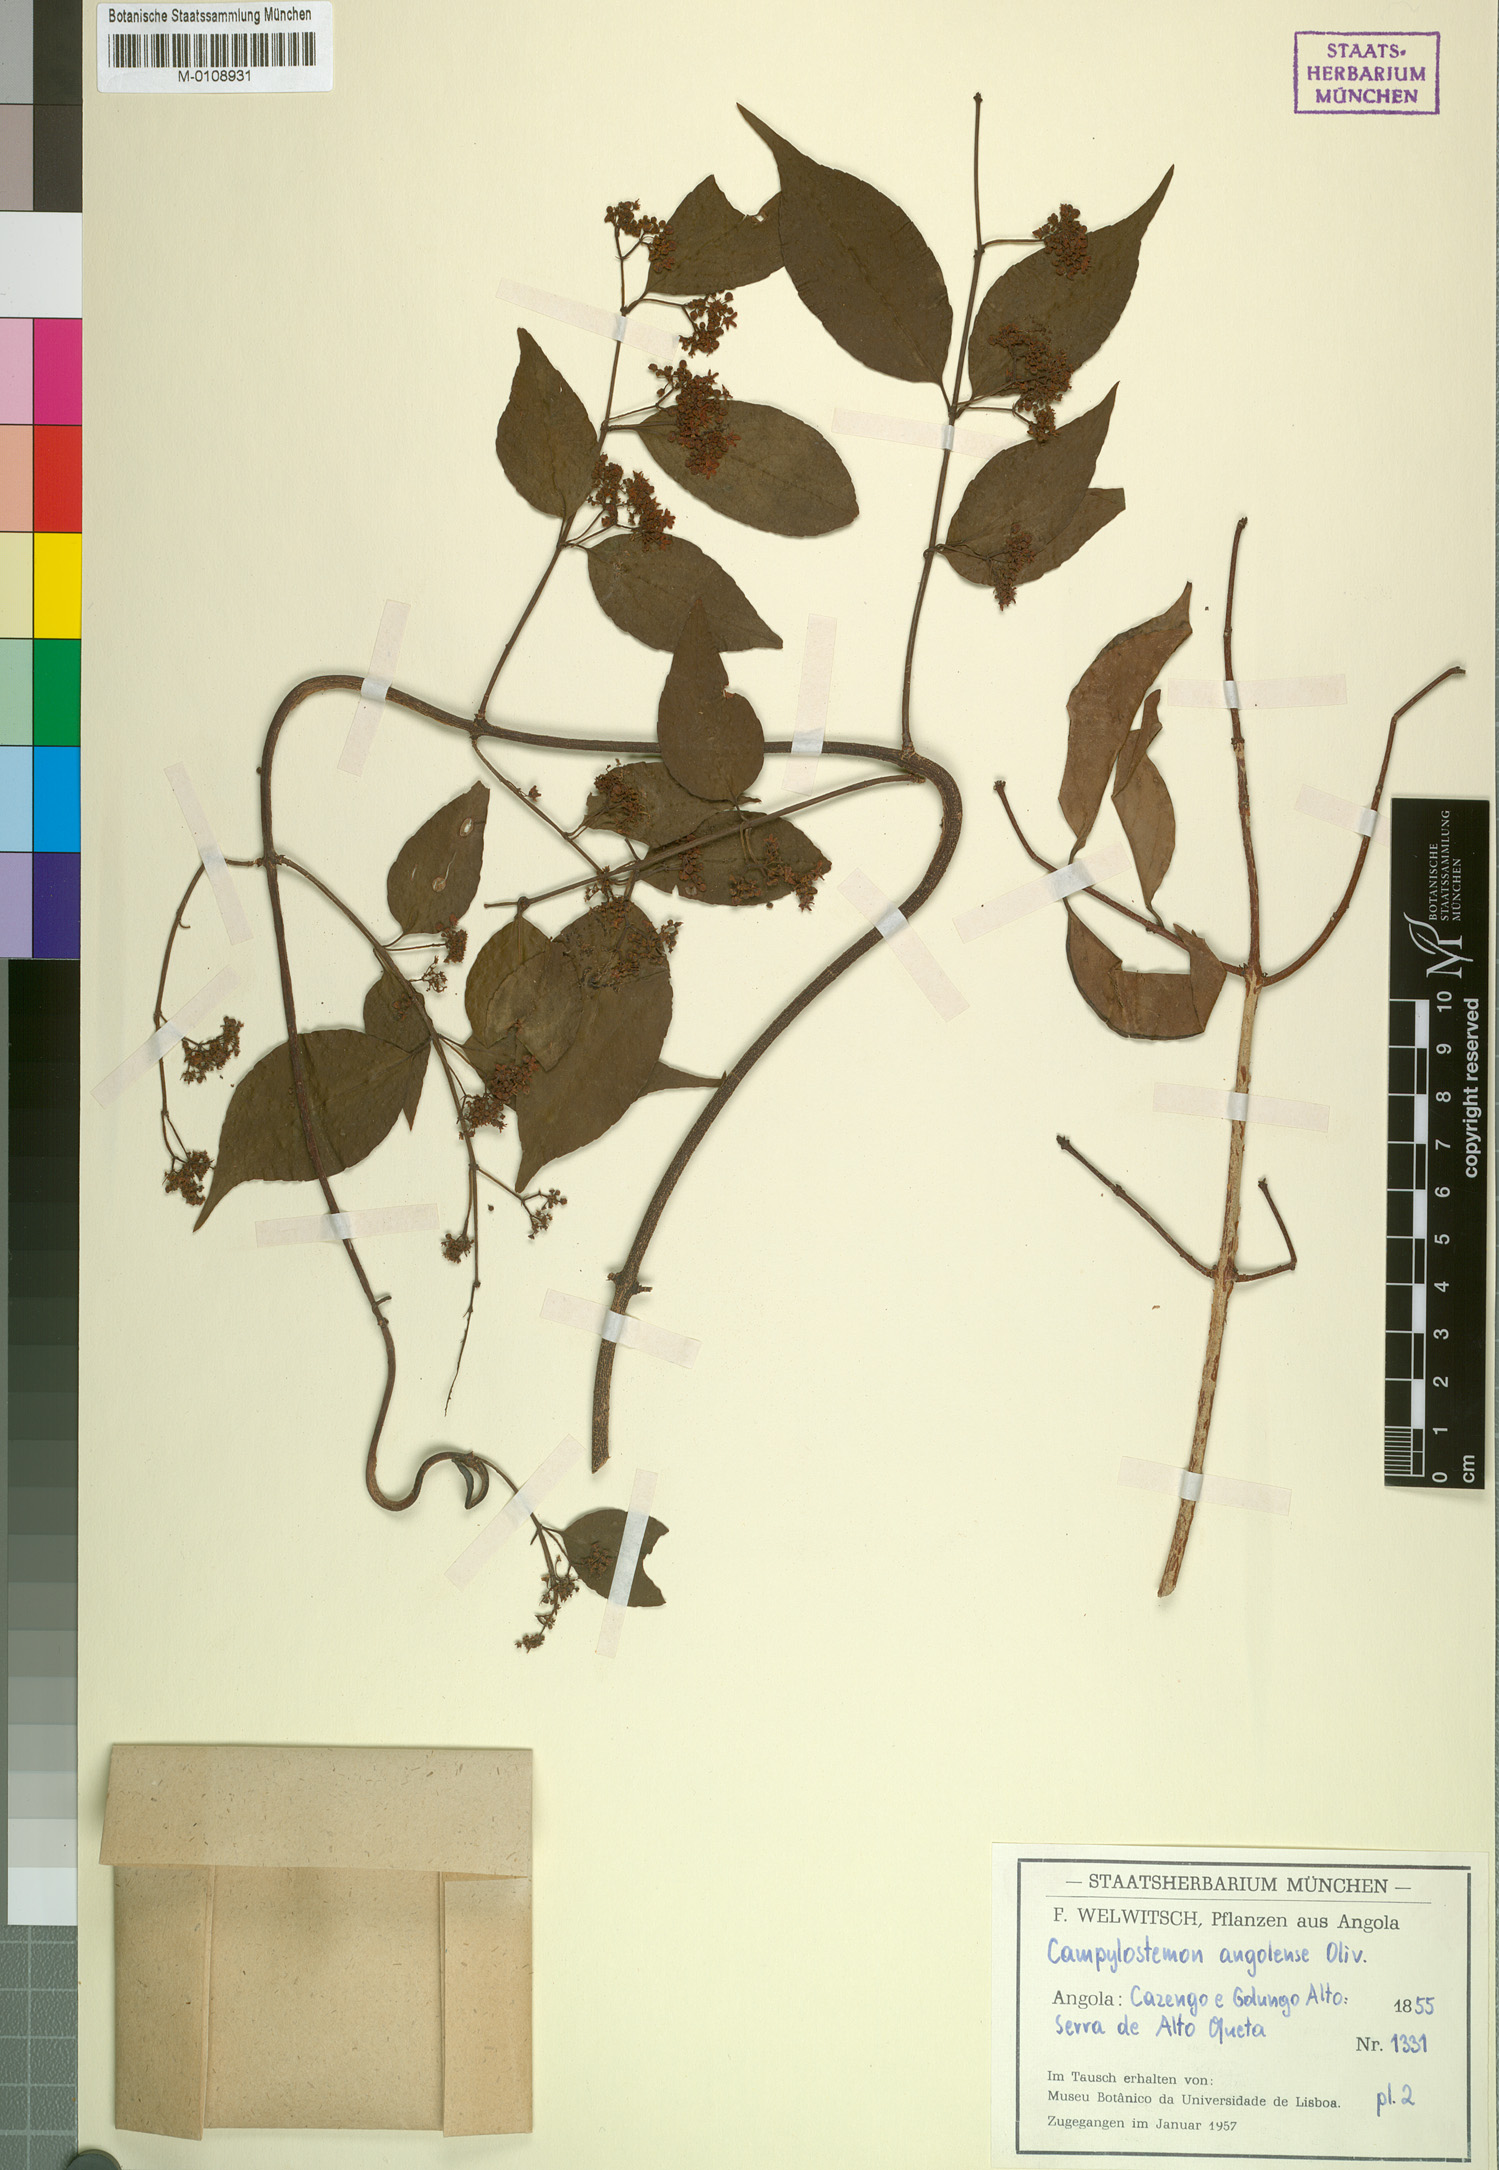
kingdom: Plantae
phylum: Tracheophyta
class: Magnoliopsida
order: Celastrales
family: Celastraceae
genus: Campylostemon
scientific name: Campylostemon angolense
